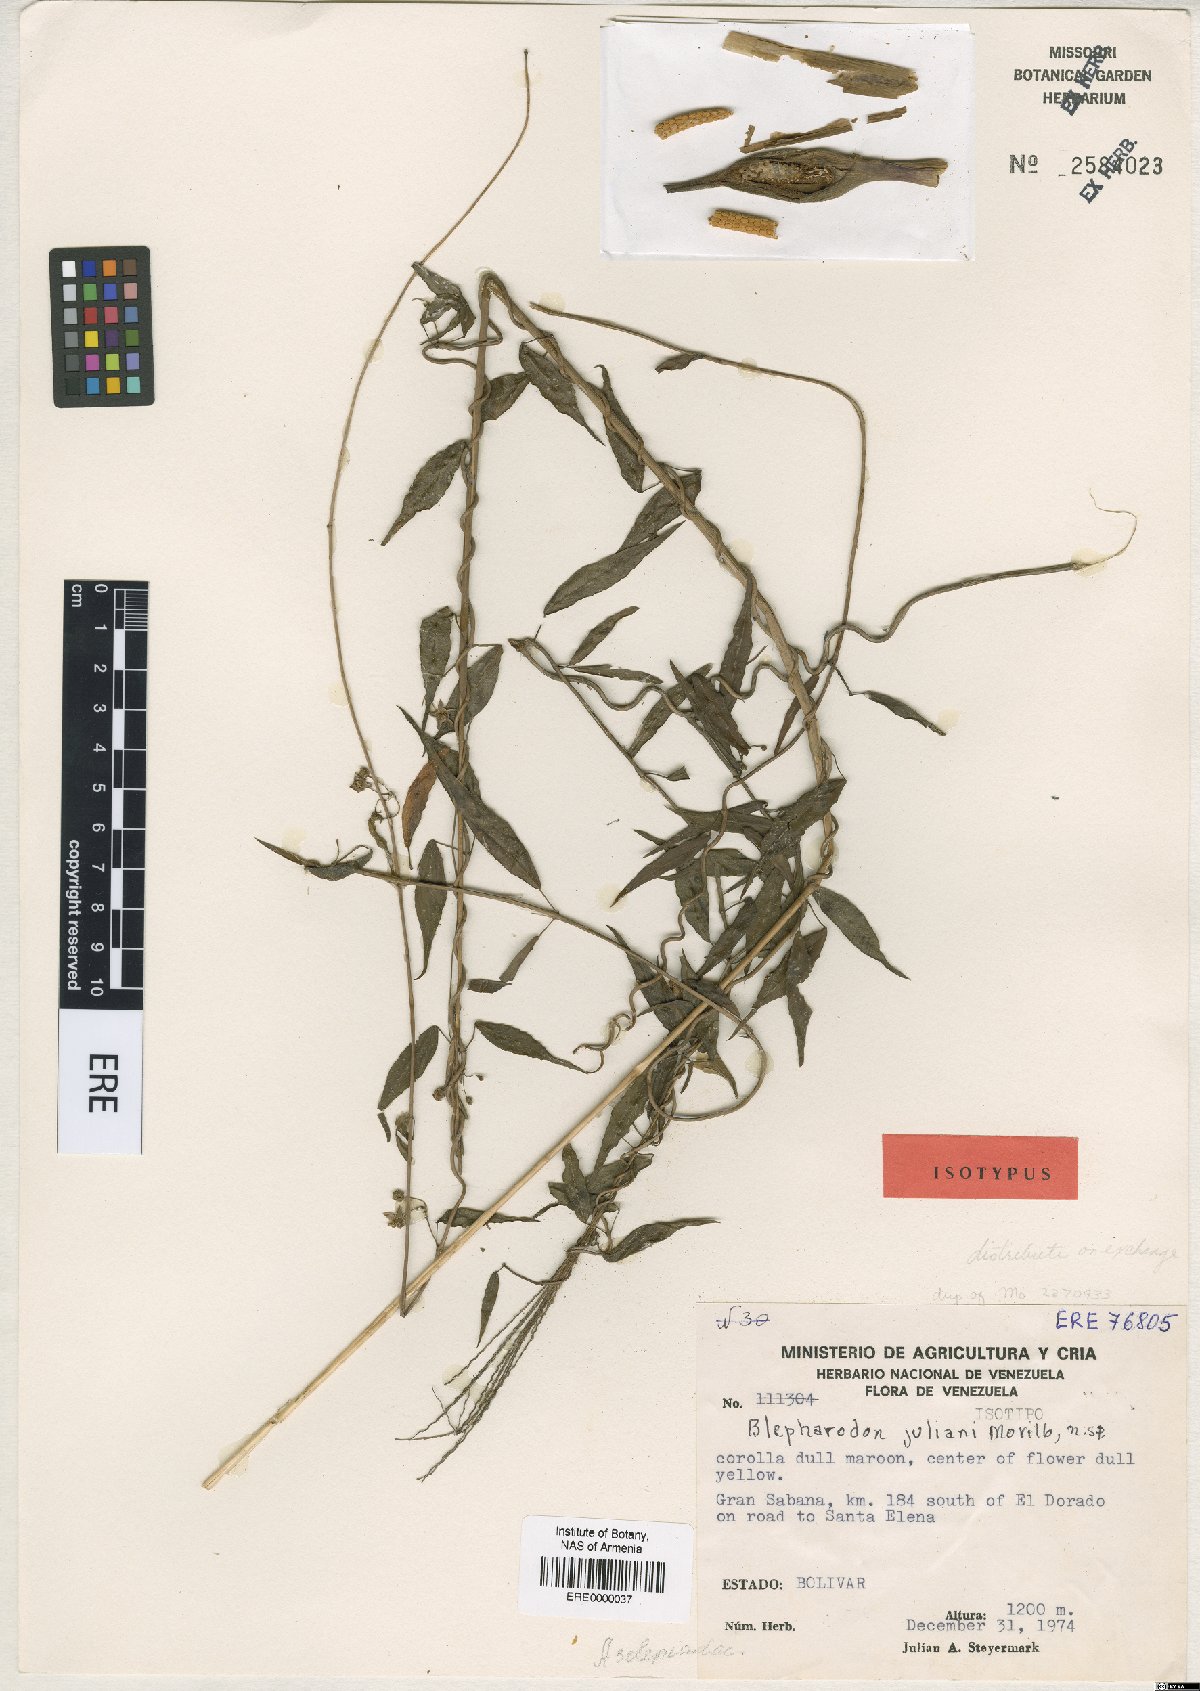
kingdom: Plantae
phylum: Tracheophyta
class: Magnoliopsida
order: Gentianales
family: Apocynaceae
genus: Blepharodon
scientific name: Blepharodon juliani
